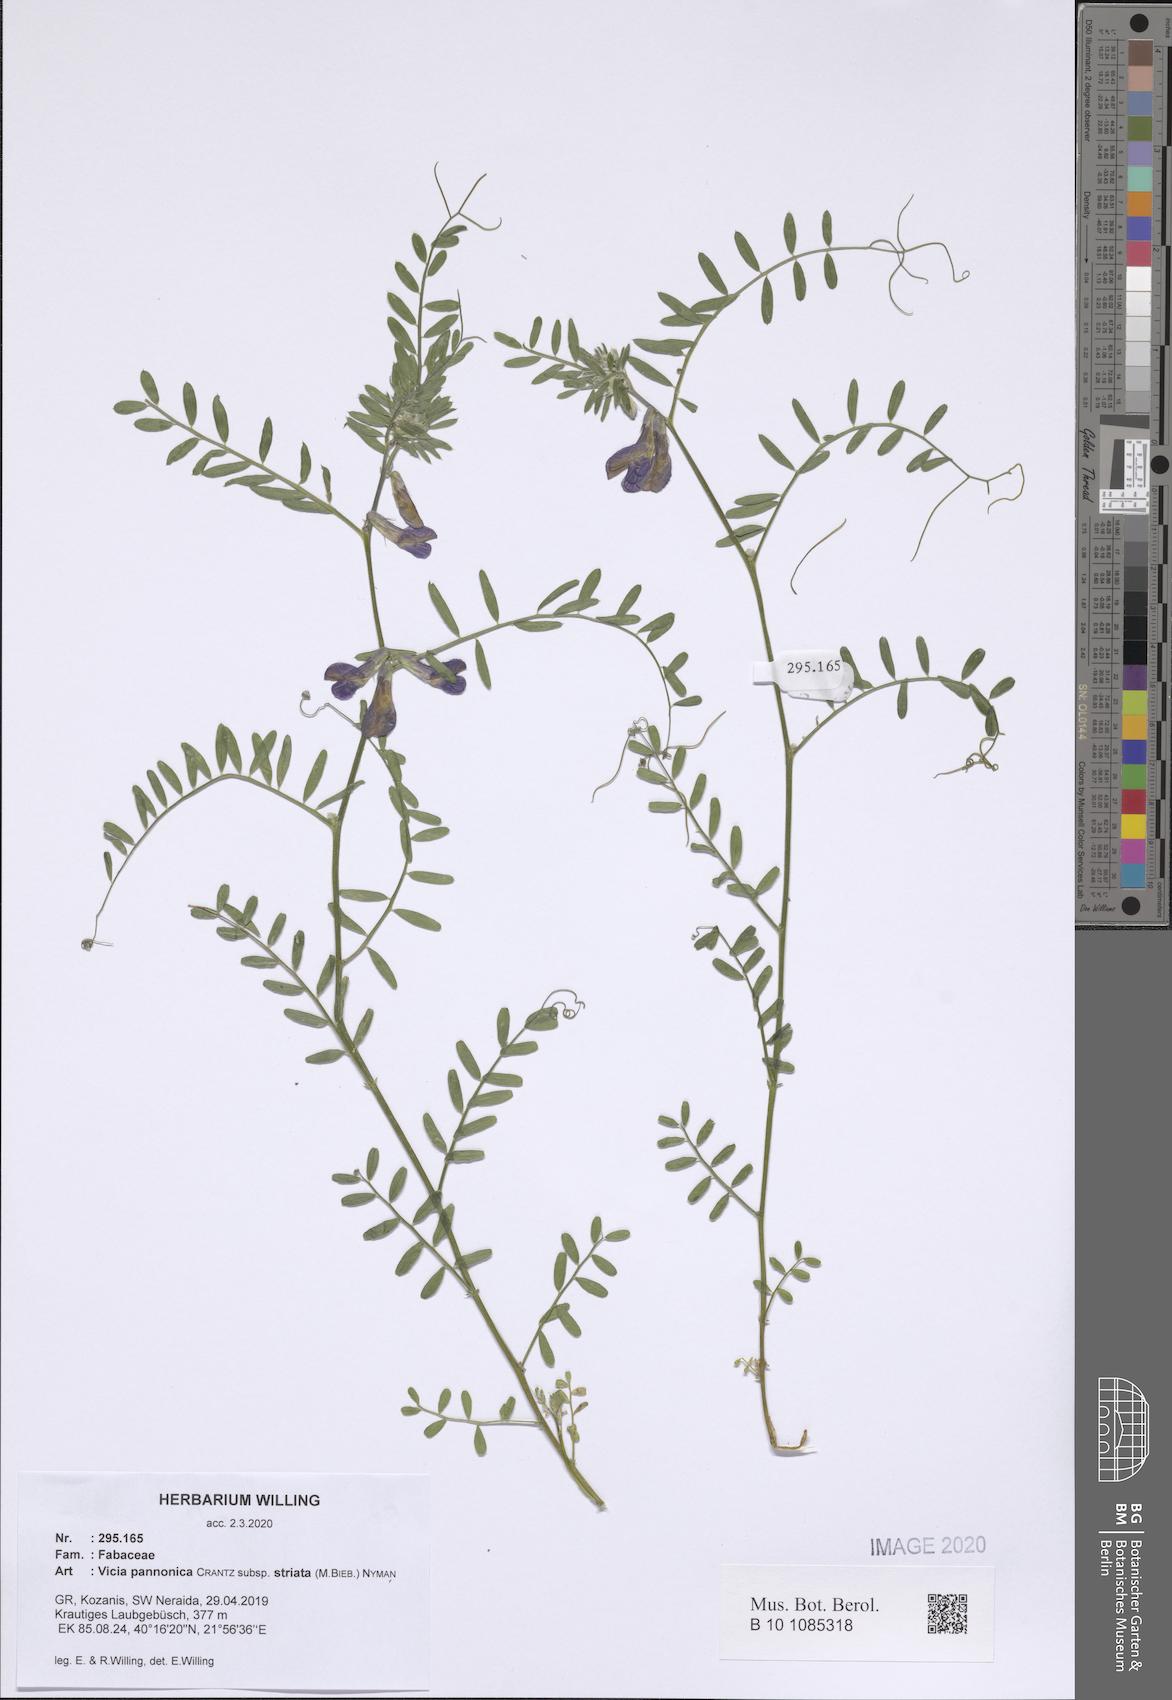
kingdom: Plantae
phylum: Tracheophyta
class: Magnoliopsida
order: Fabales
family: Fabaceae
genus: Vicia
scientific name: Vicia pannonica
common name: Hungarian vetch
